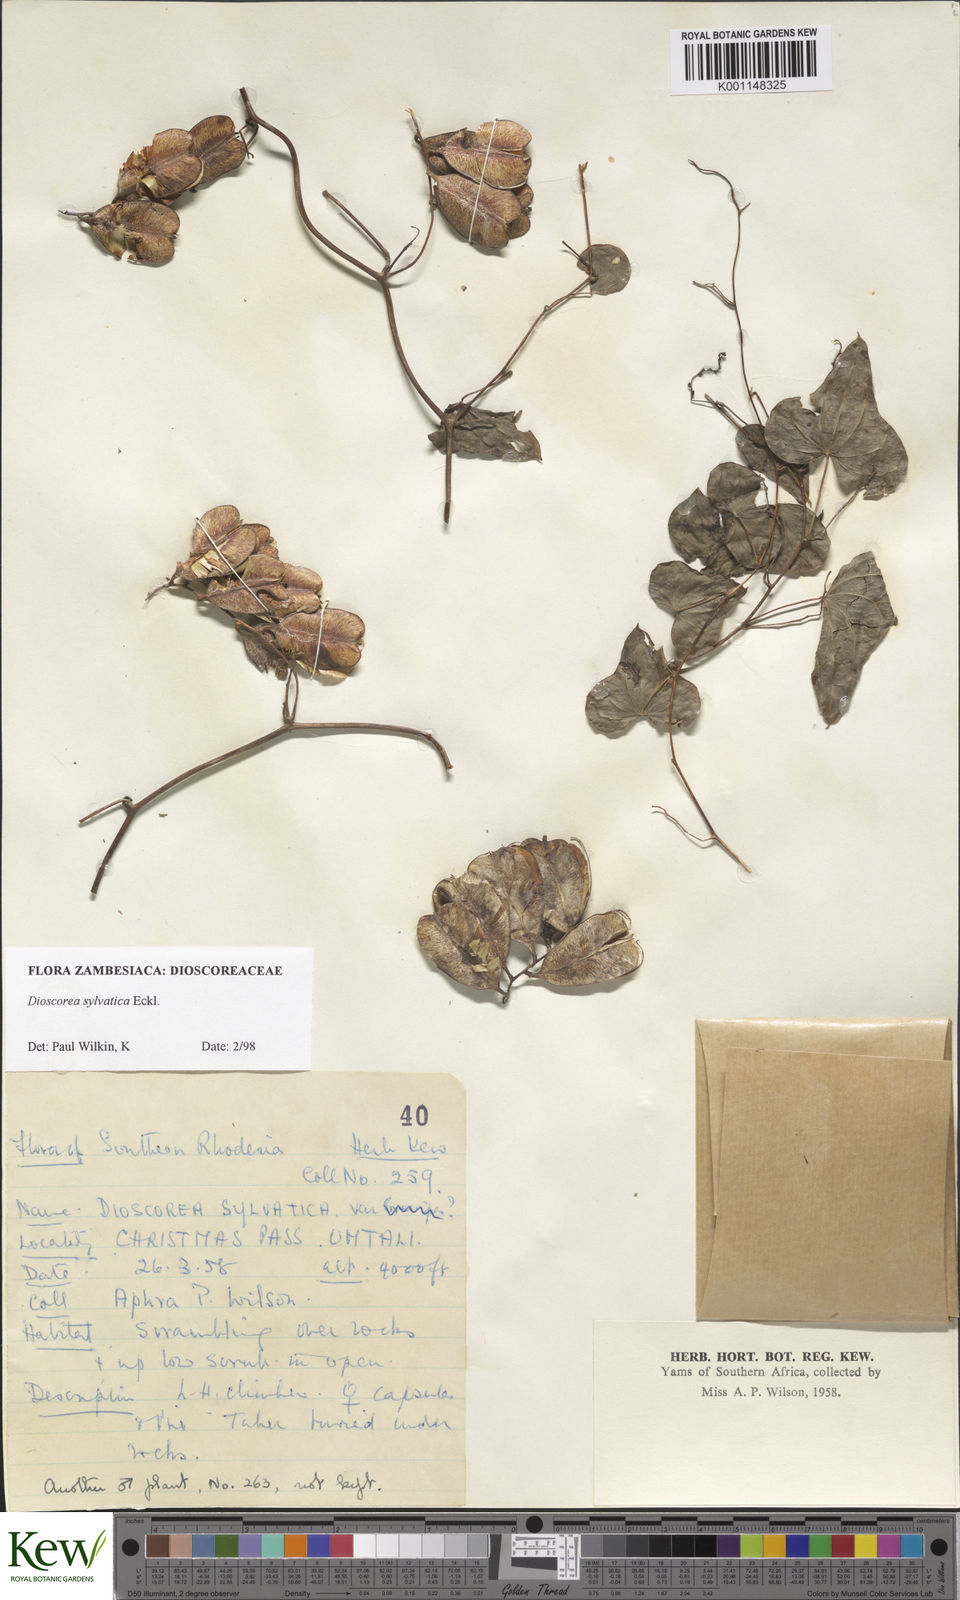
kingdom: Plantae
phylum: Tracheophyta
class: Liliopsida
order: Dioscoreales
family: Dioscoreaceae
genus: Dioscorea
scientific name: Dioscorea sylvatica
